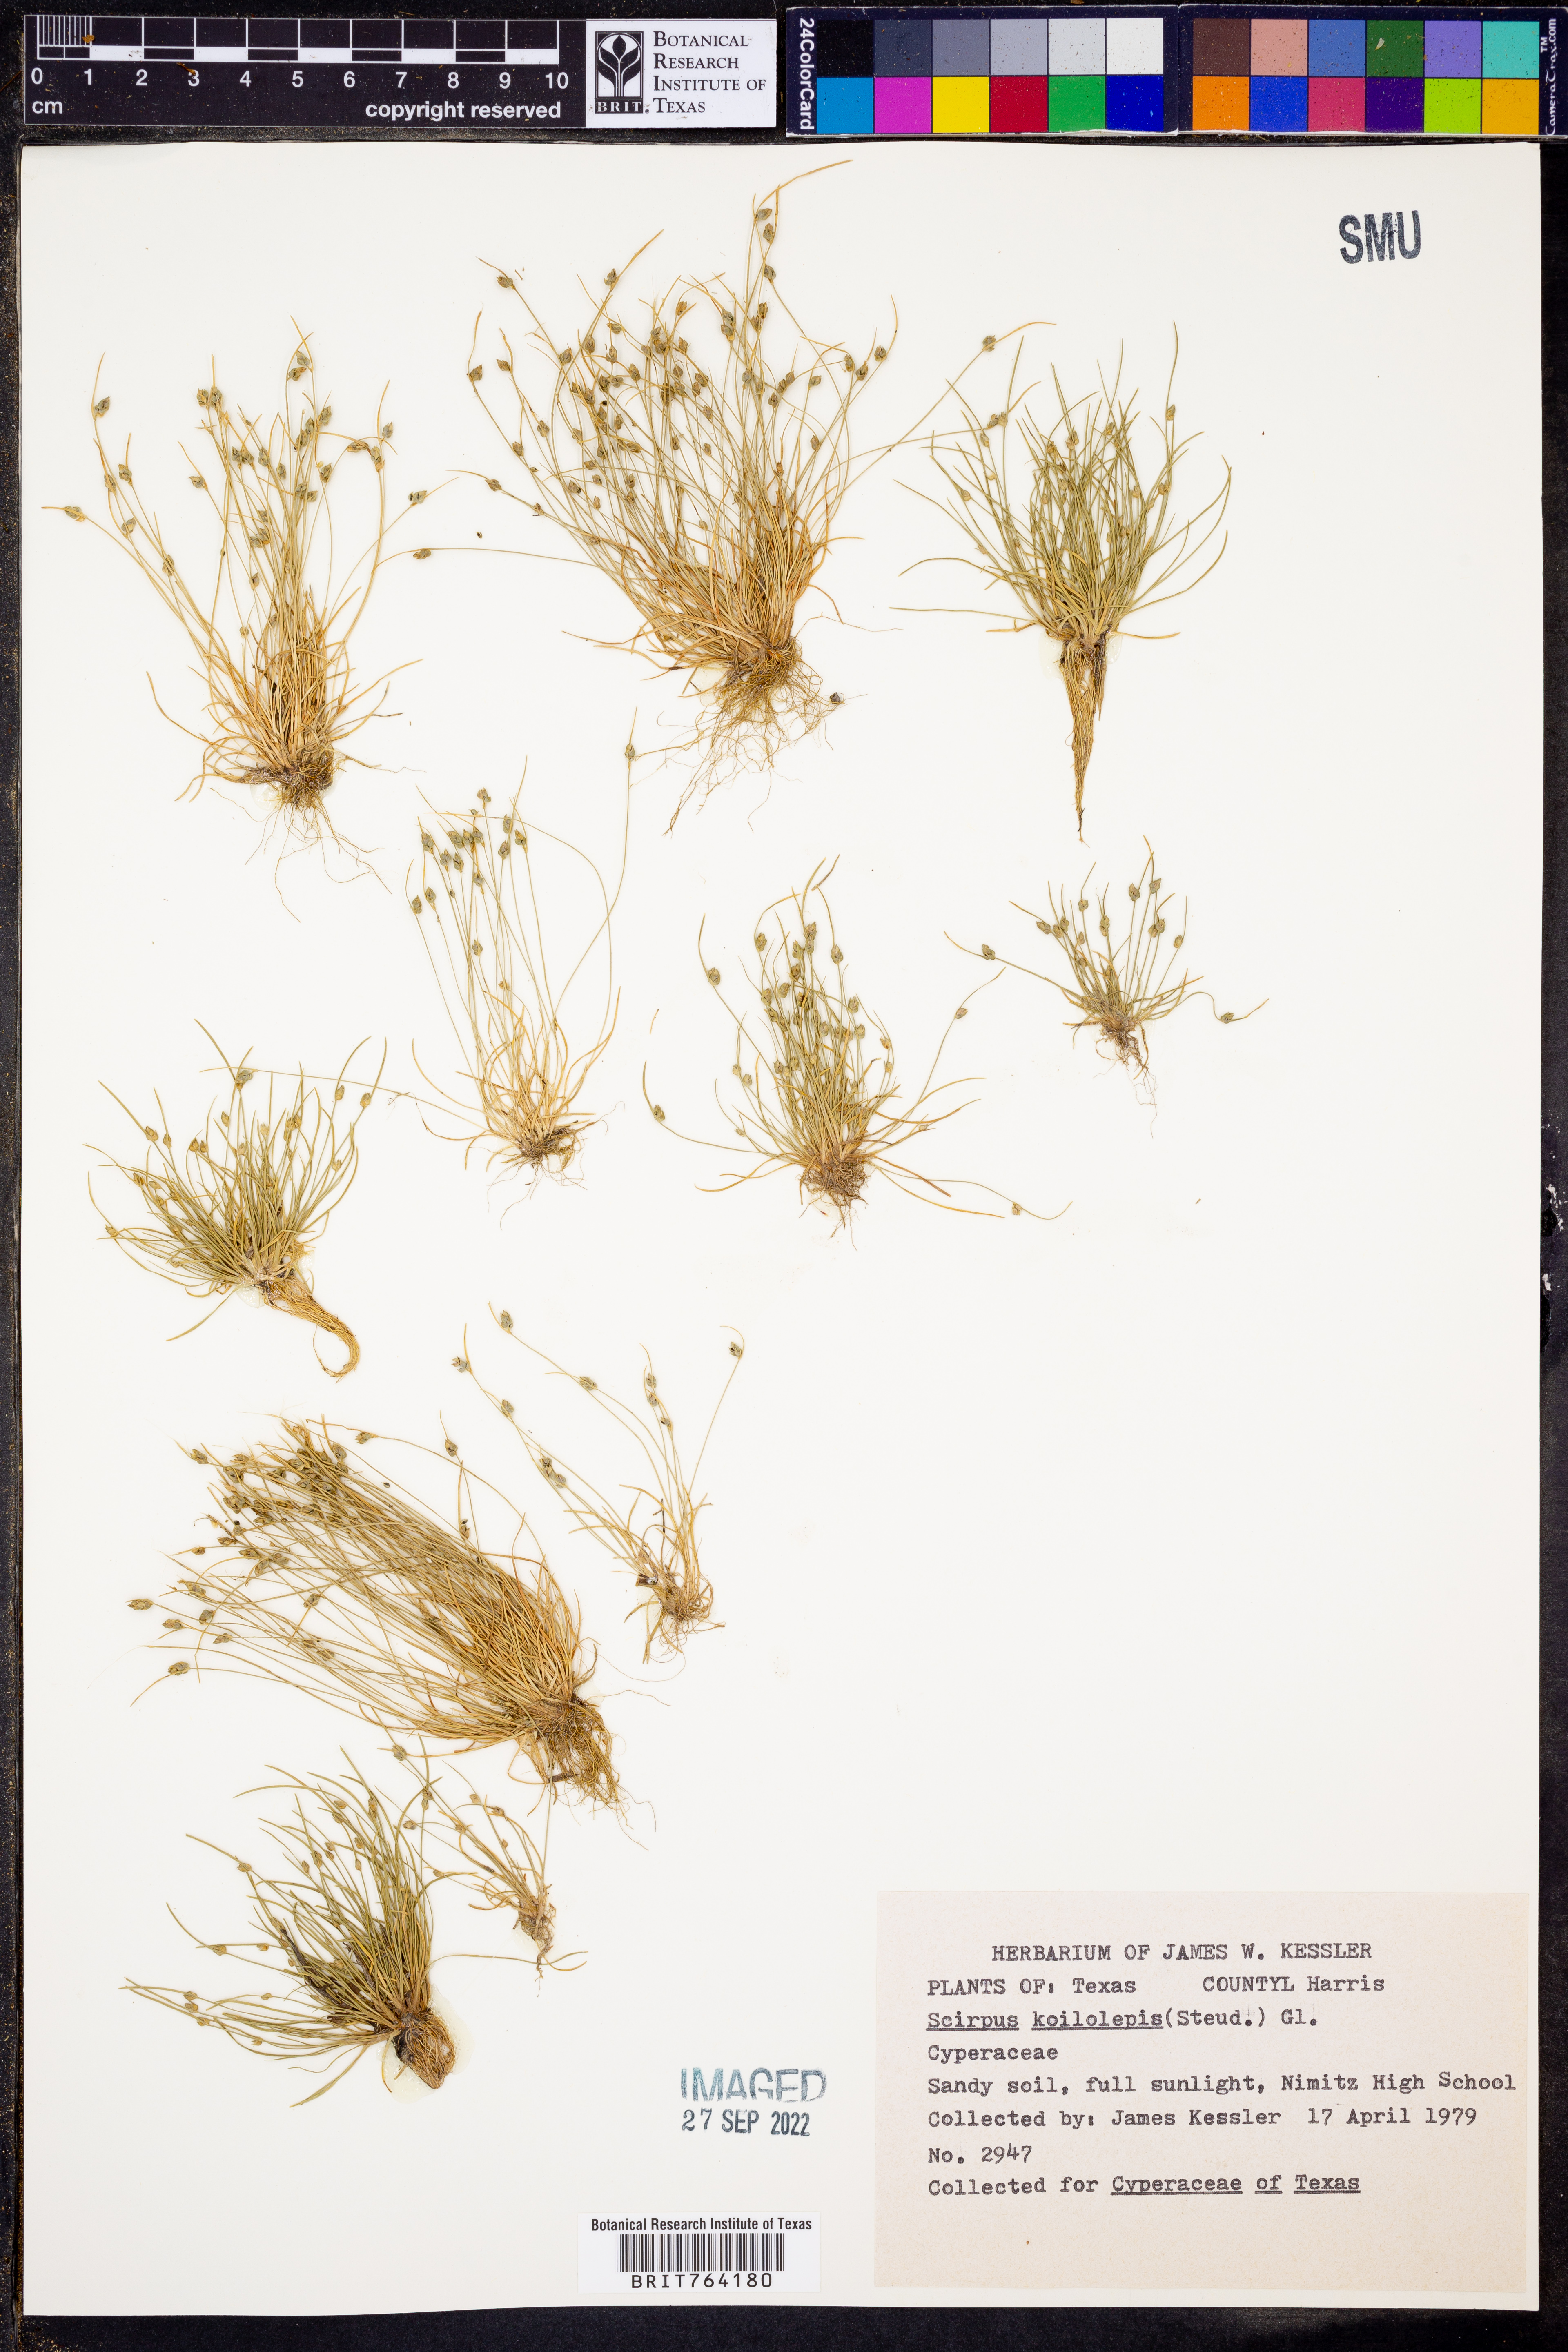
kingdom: Plantae
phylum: Tracheophyta
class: Liliopsida
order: Poales
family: Cyperaceae
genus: Isolepis
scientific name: Isolepis carinata
